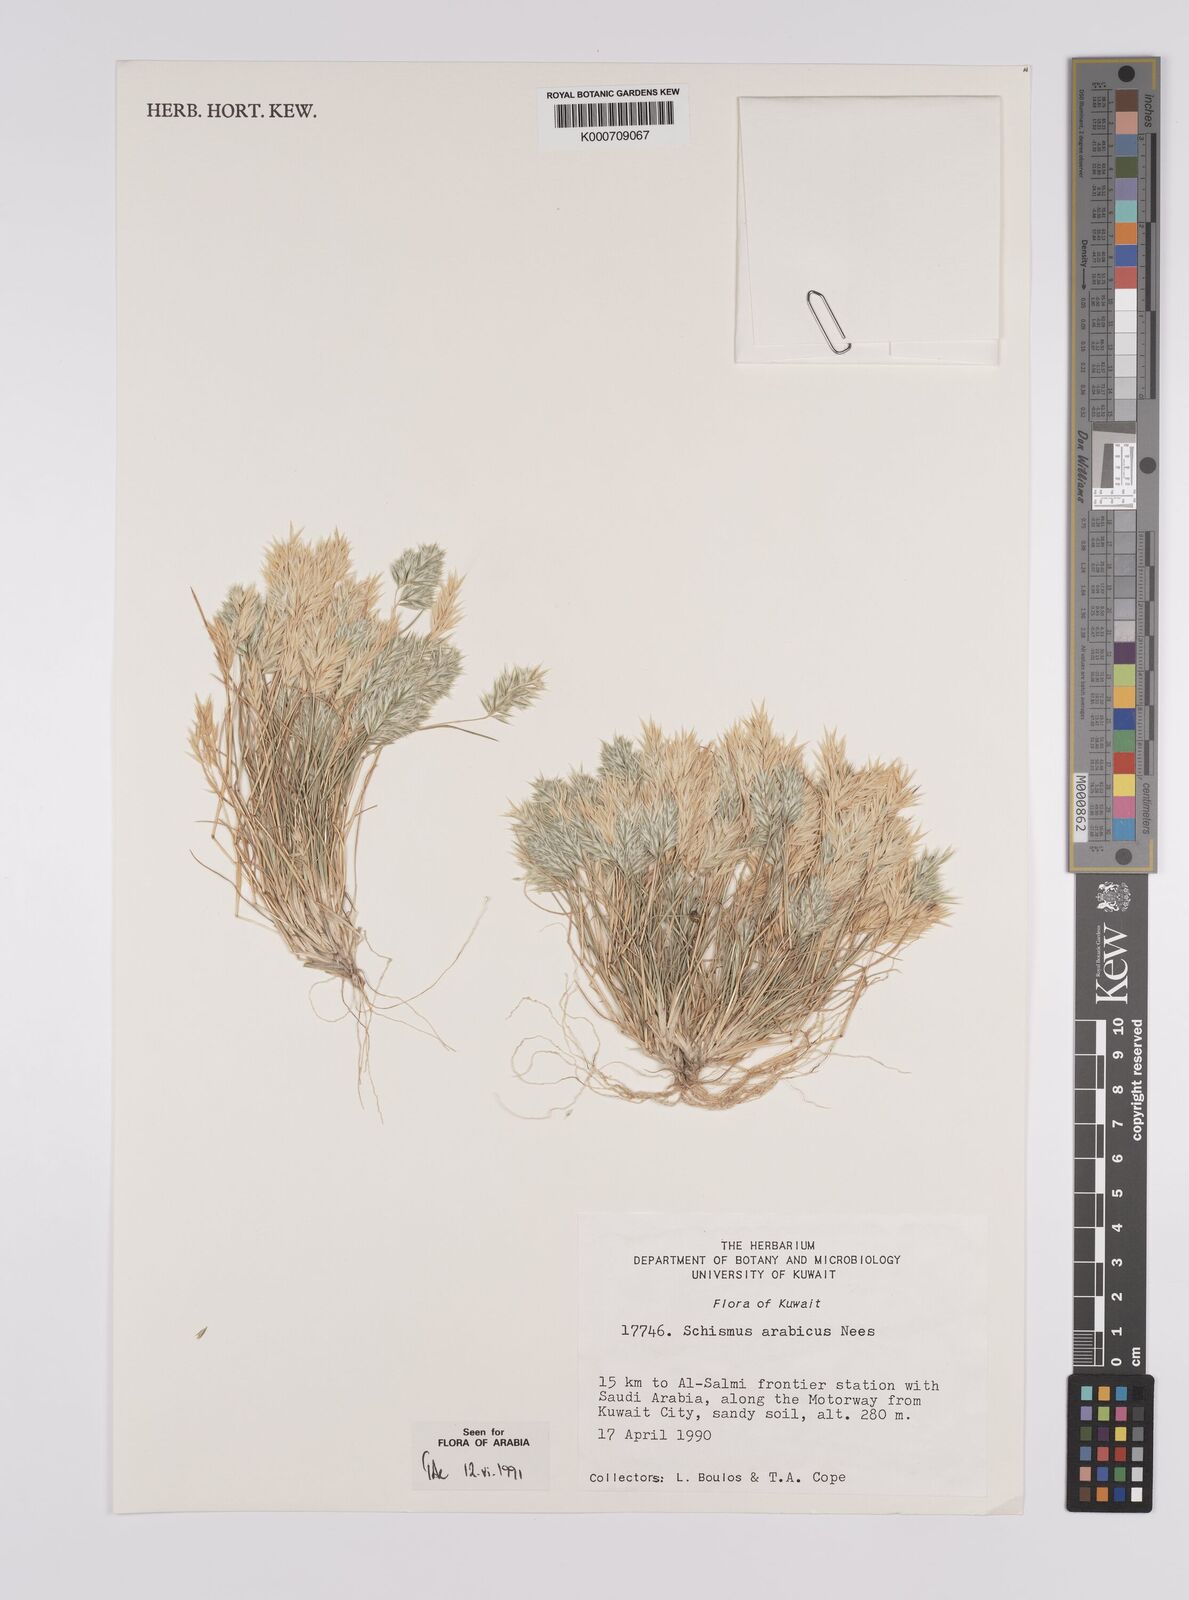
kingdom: Plantae
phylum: Tracheophyta
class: Liliopsida
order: Poales
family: Poaceae
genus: Schismus
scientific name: Schismus arabicus
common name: Arabian schismus
